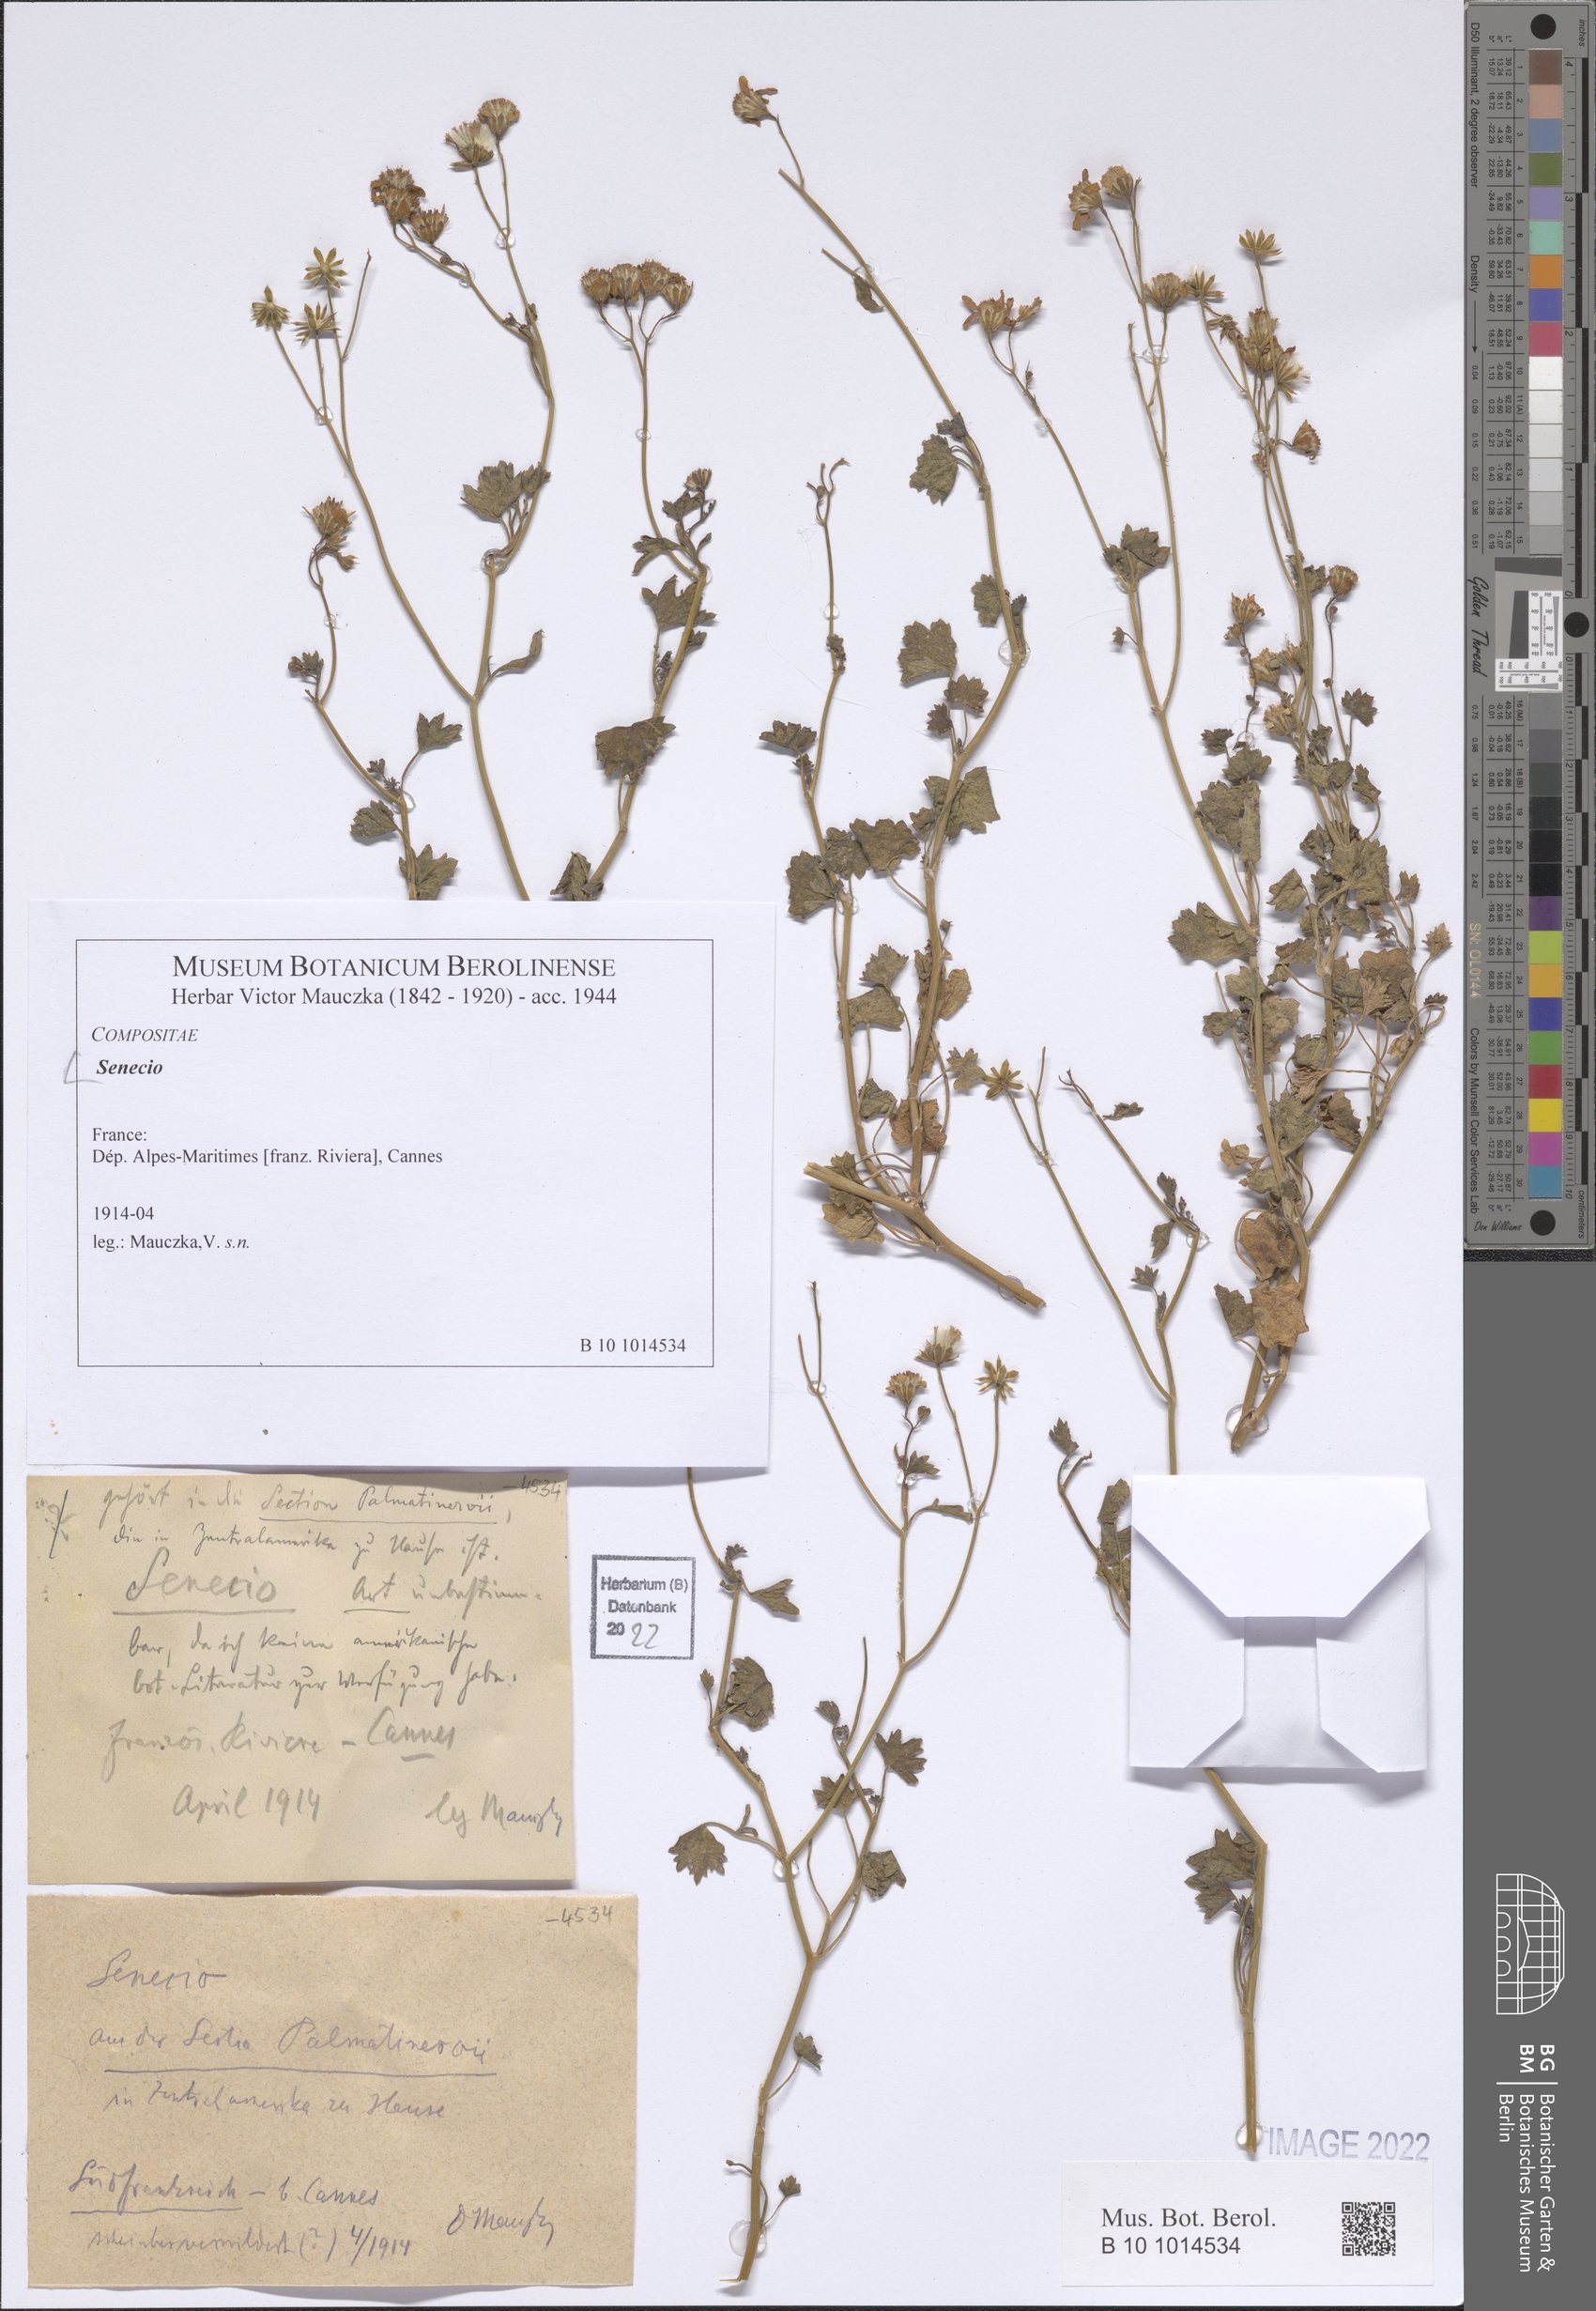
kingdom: Plantae
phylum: Tracheophyta
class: Magnoliopsida
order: Asterales
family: Asteraceae
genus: Senecio
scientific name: Senecio
